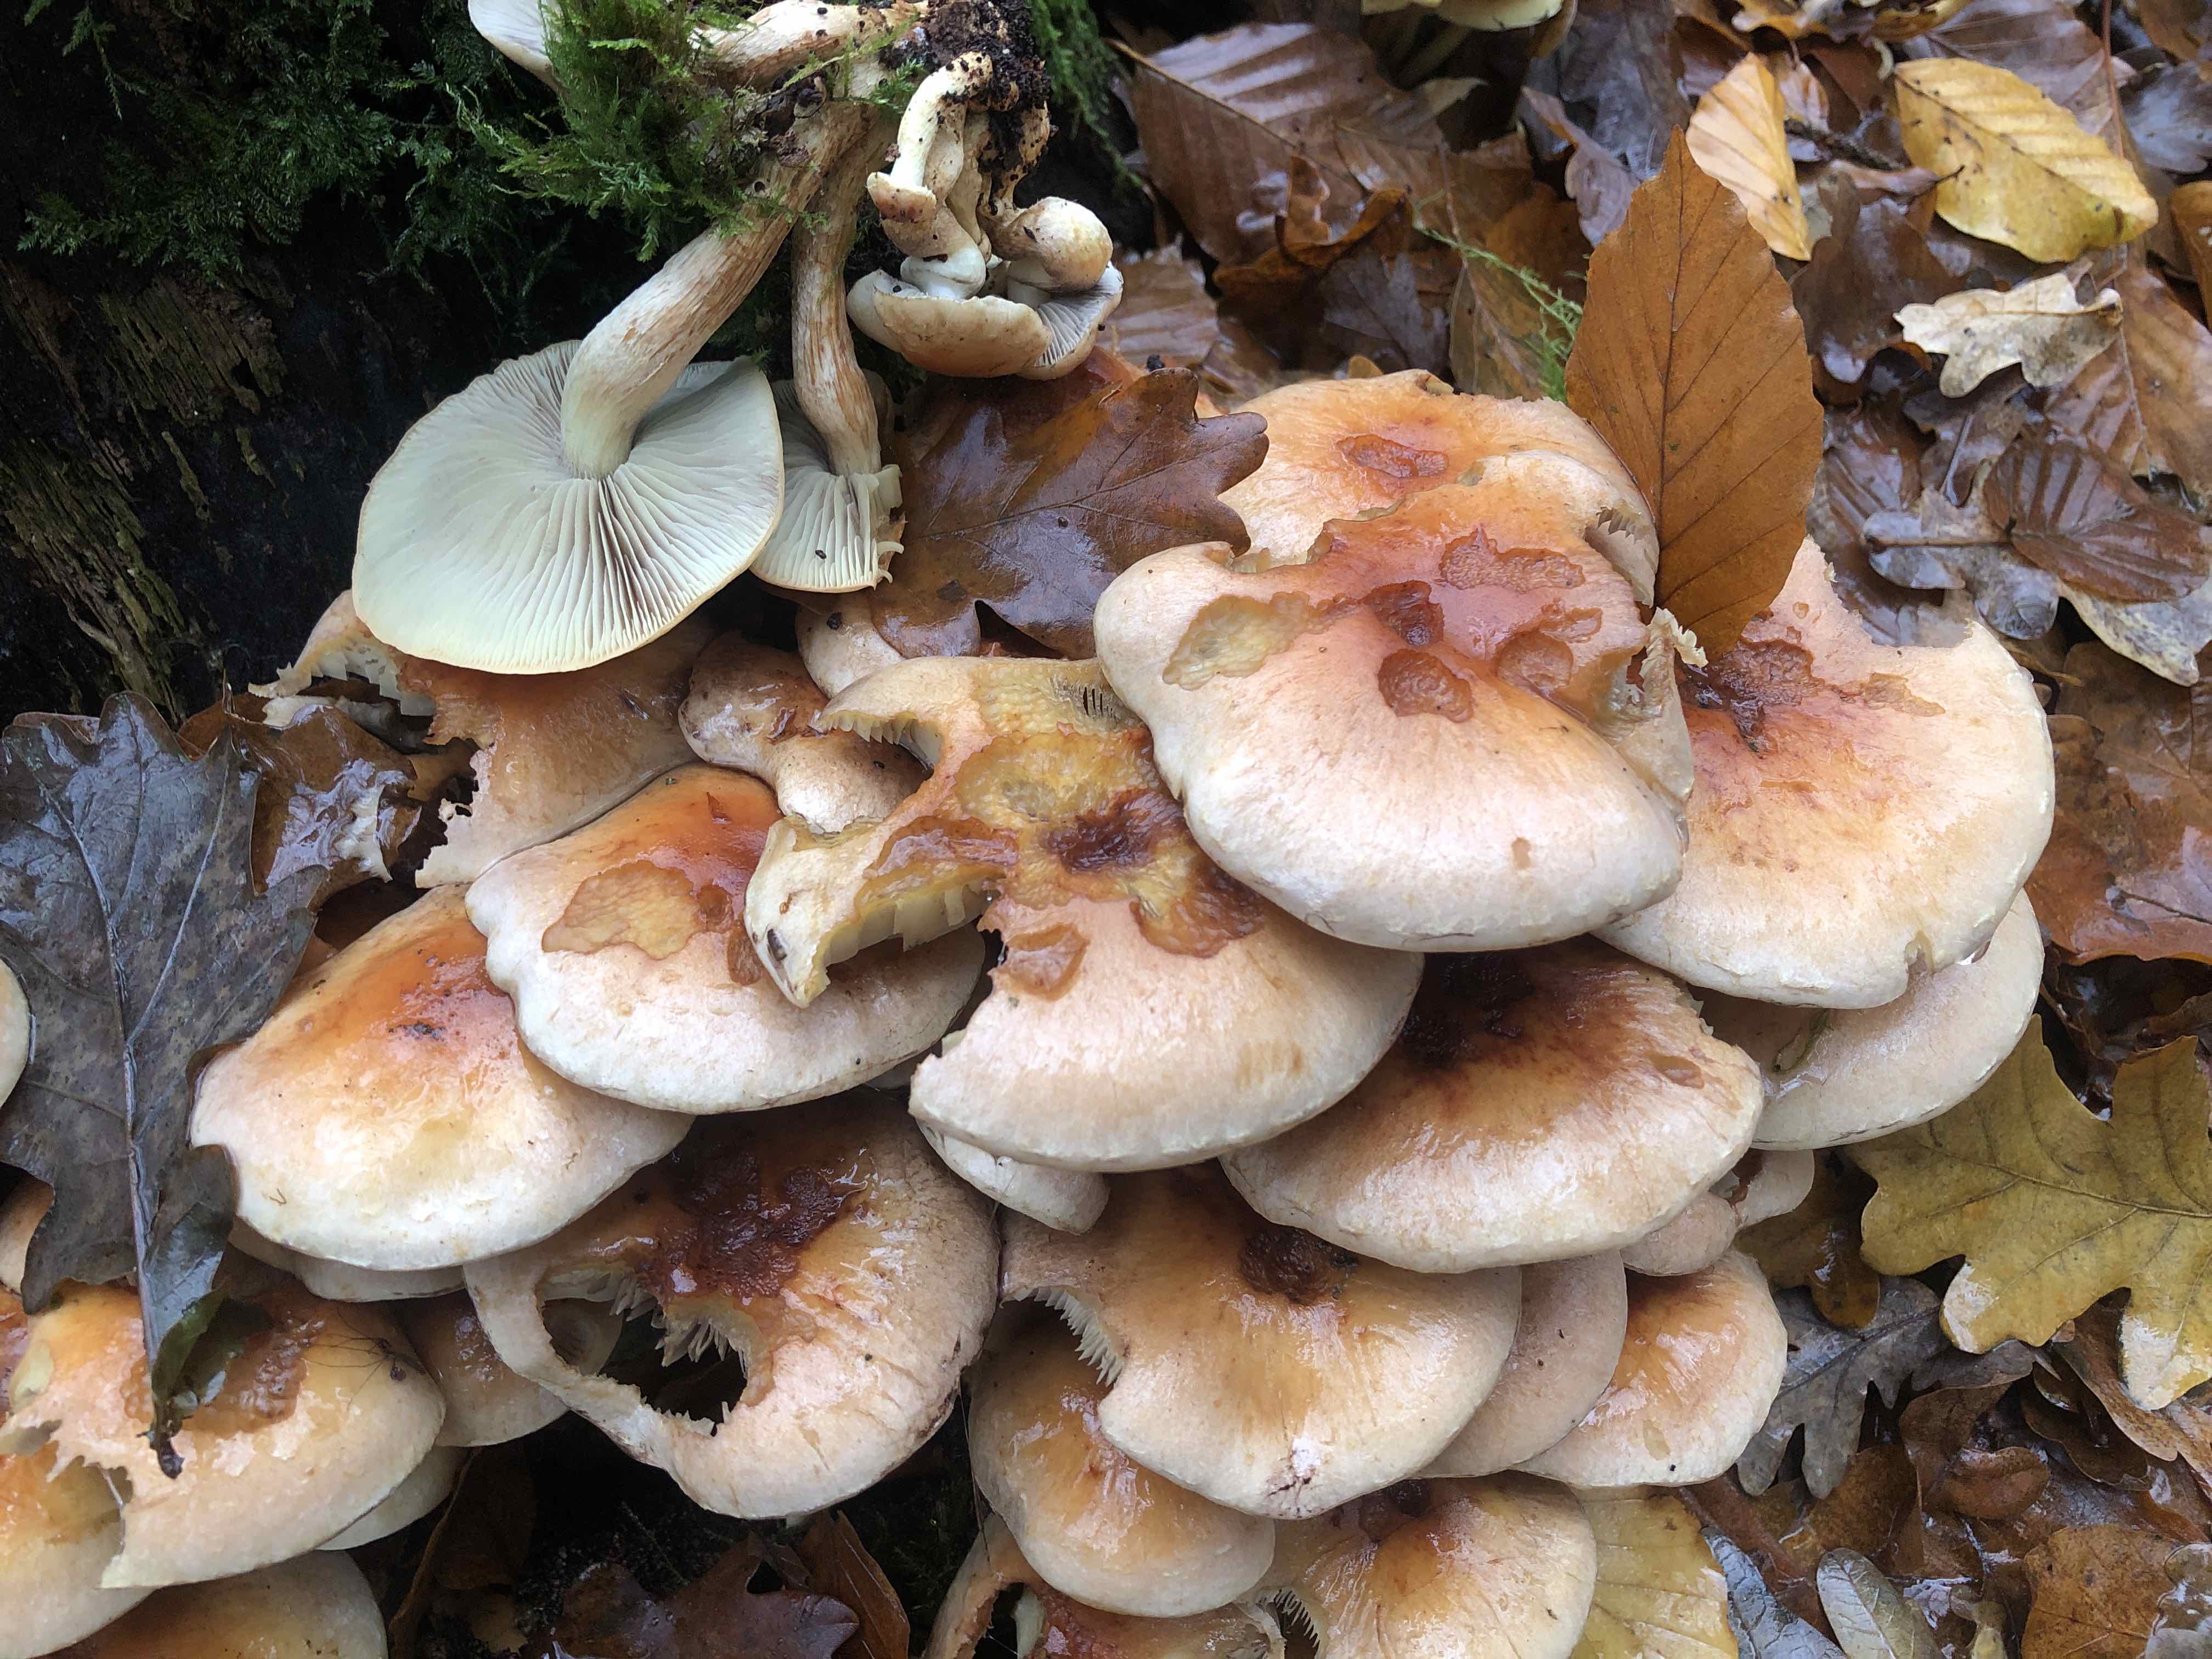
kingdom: Fungi
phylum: Basidiomycota
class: Agaricomycetes
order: Agaricales
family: Strophariaceae
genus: Hypholoma
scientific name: Hypholoma lateritium
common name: teglrød svovlhat
